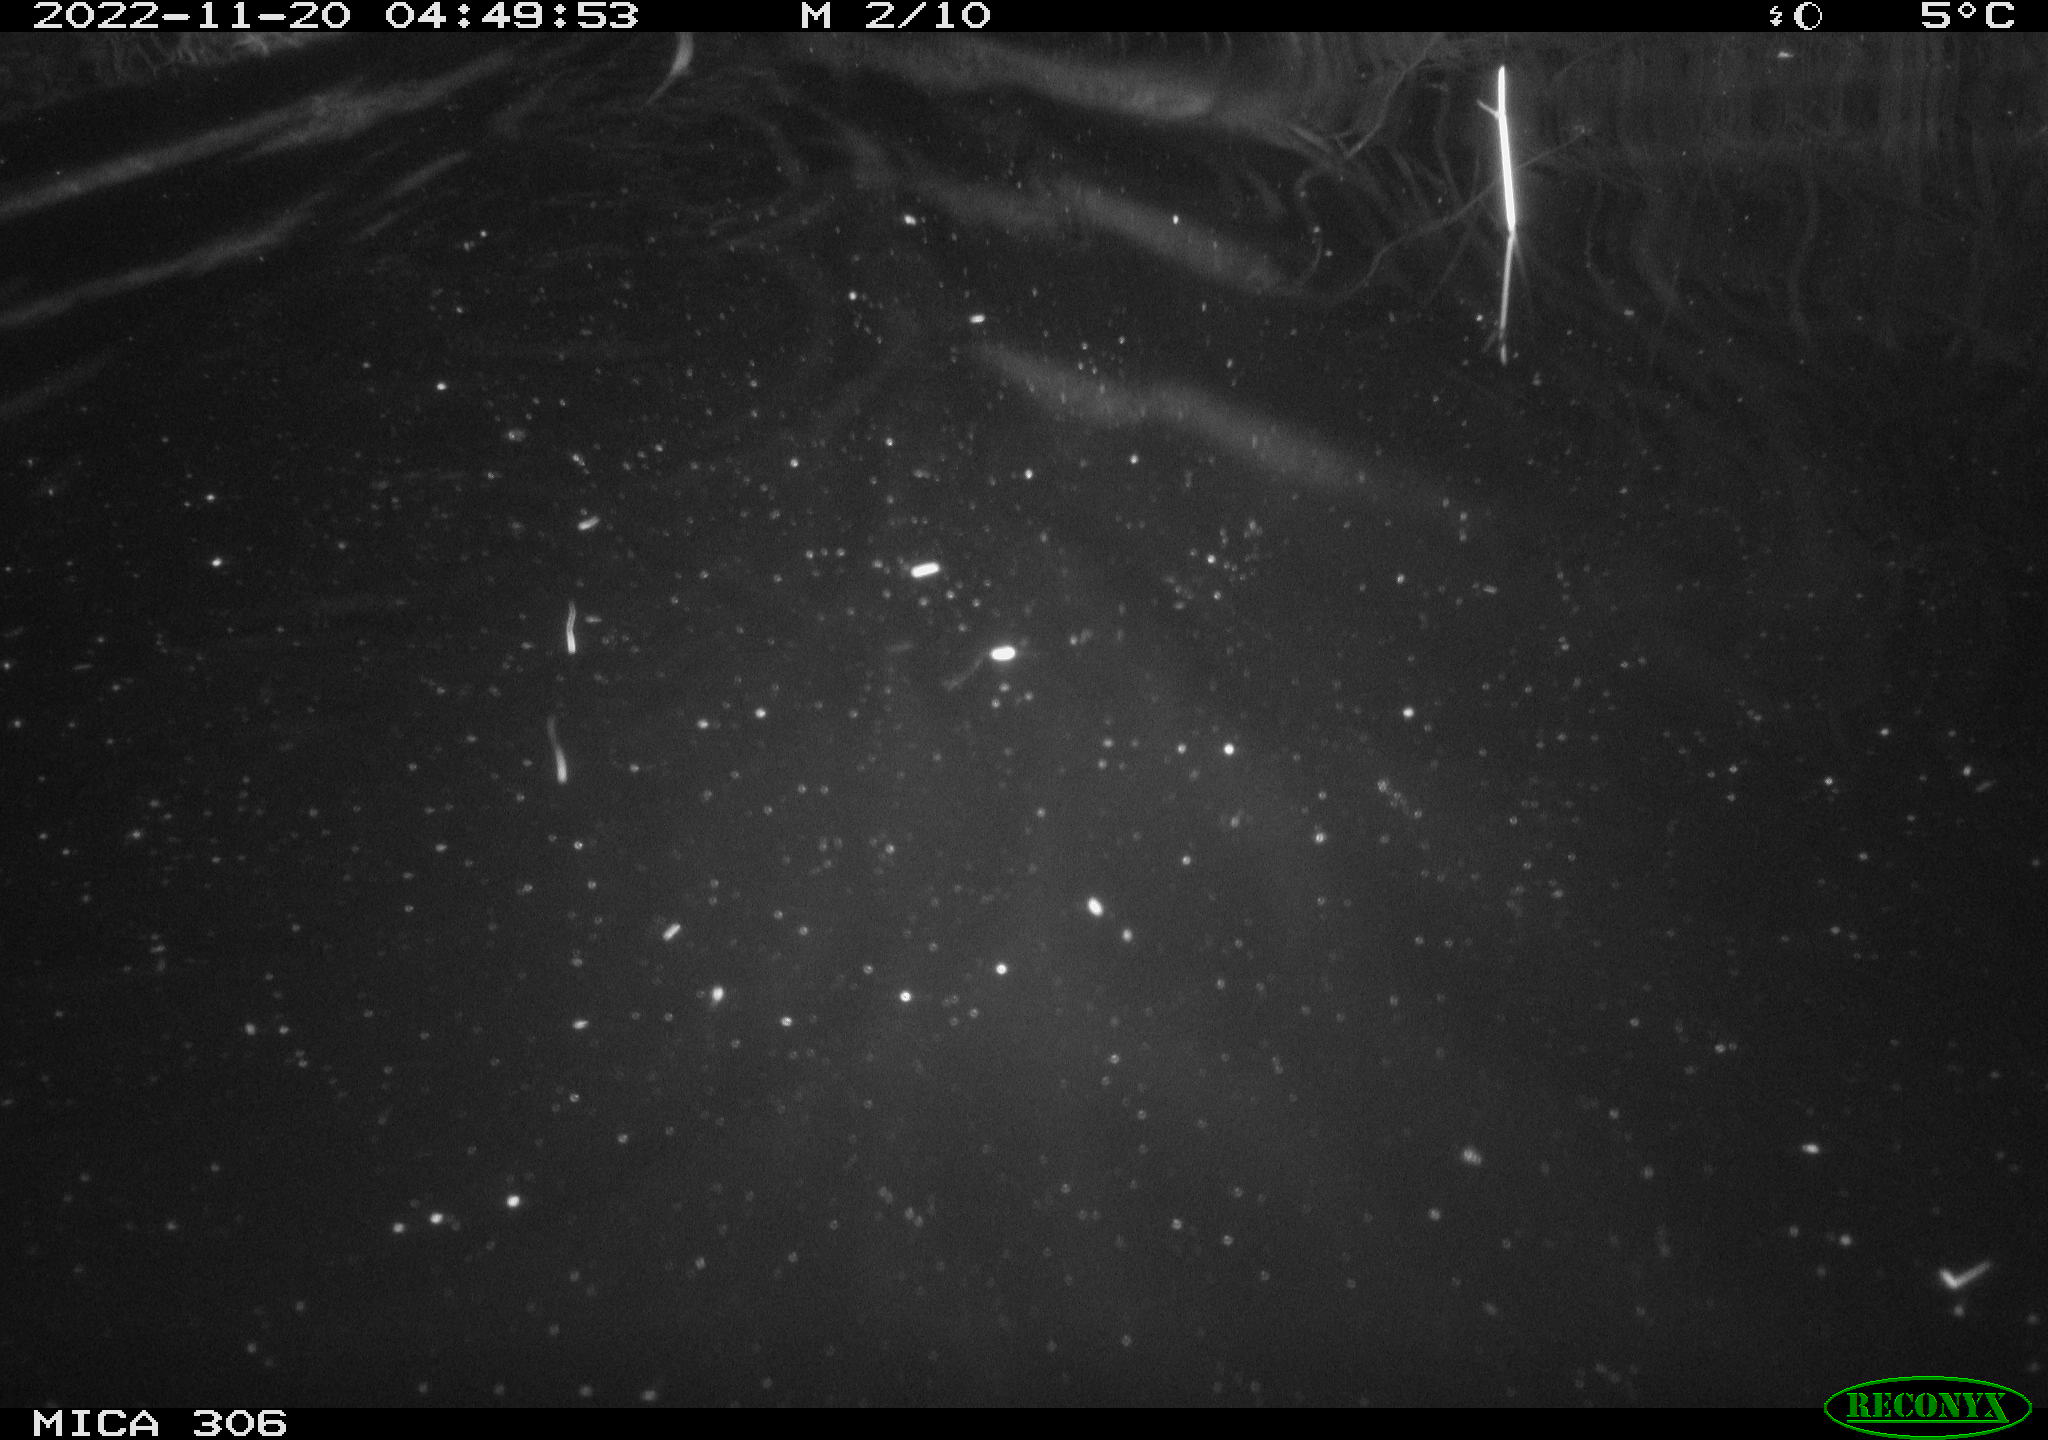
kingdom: Animalia
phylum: Chordata
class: Mammalia
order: Rodentia
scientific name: Rodentia
